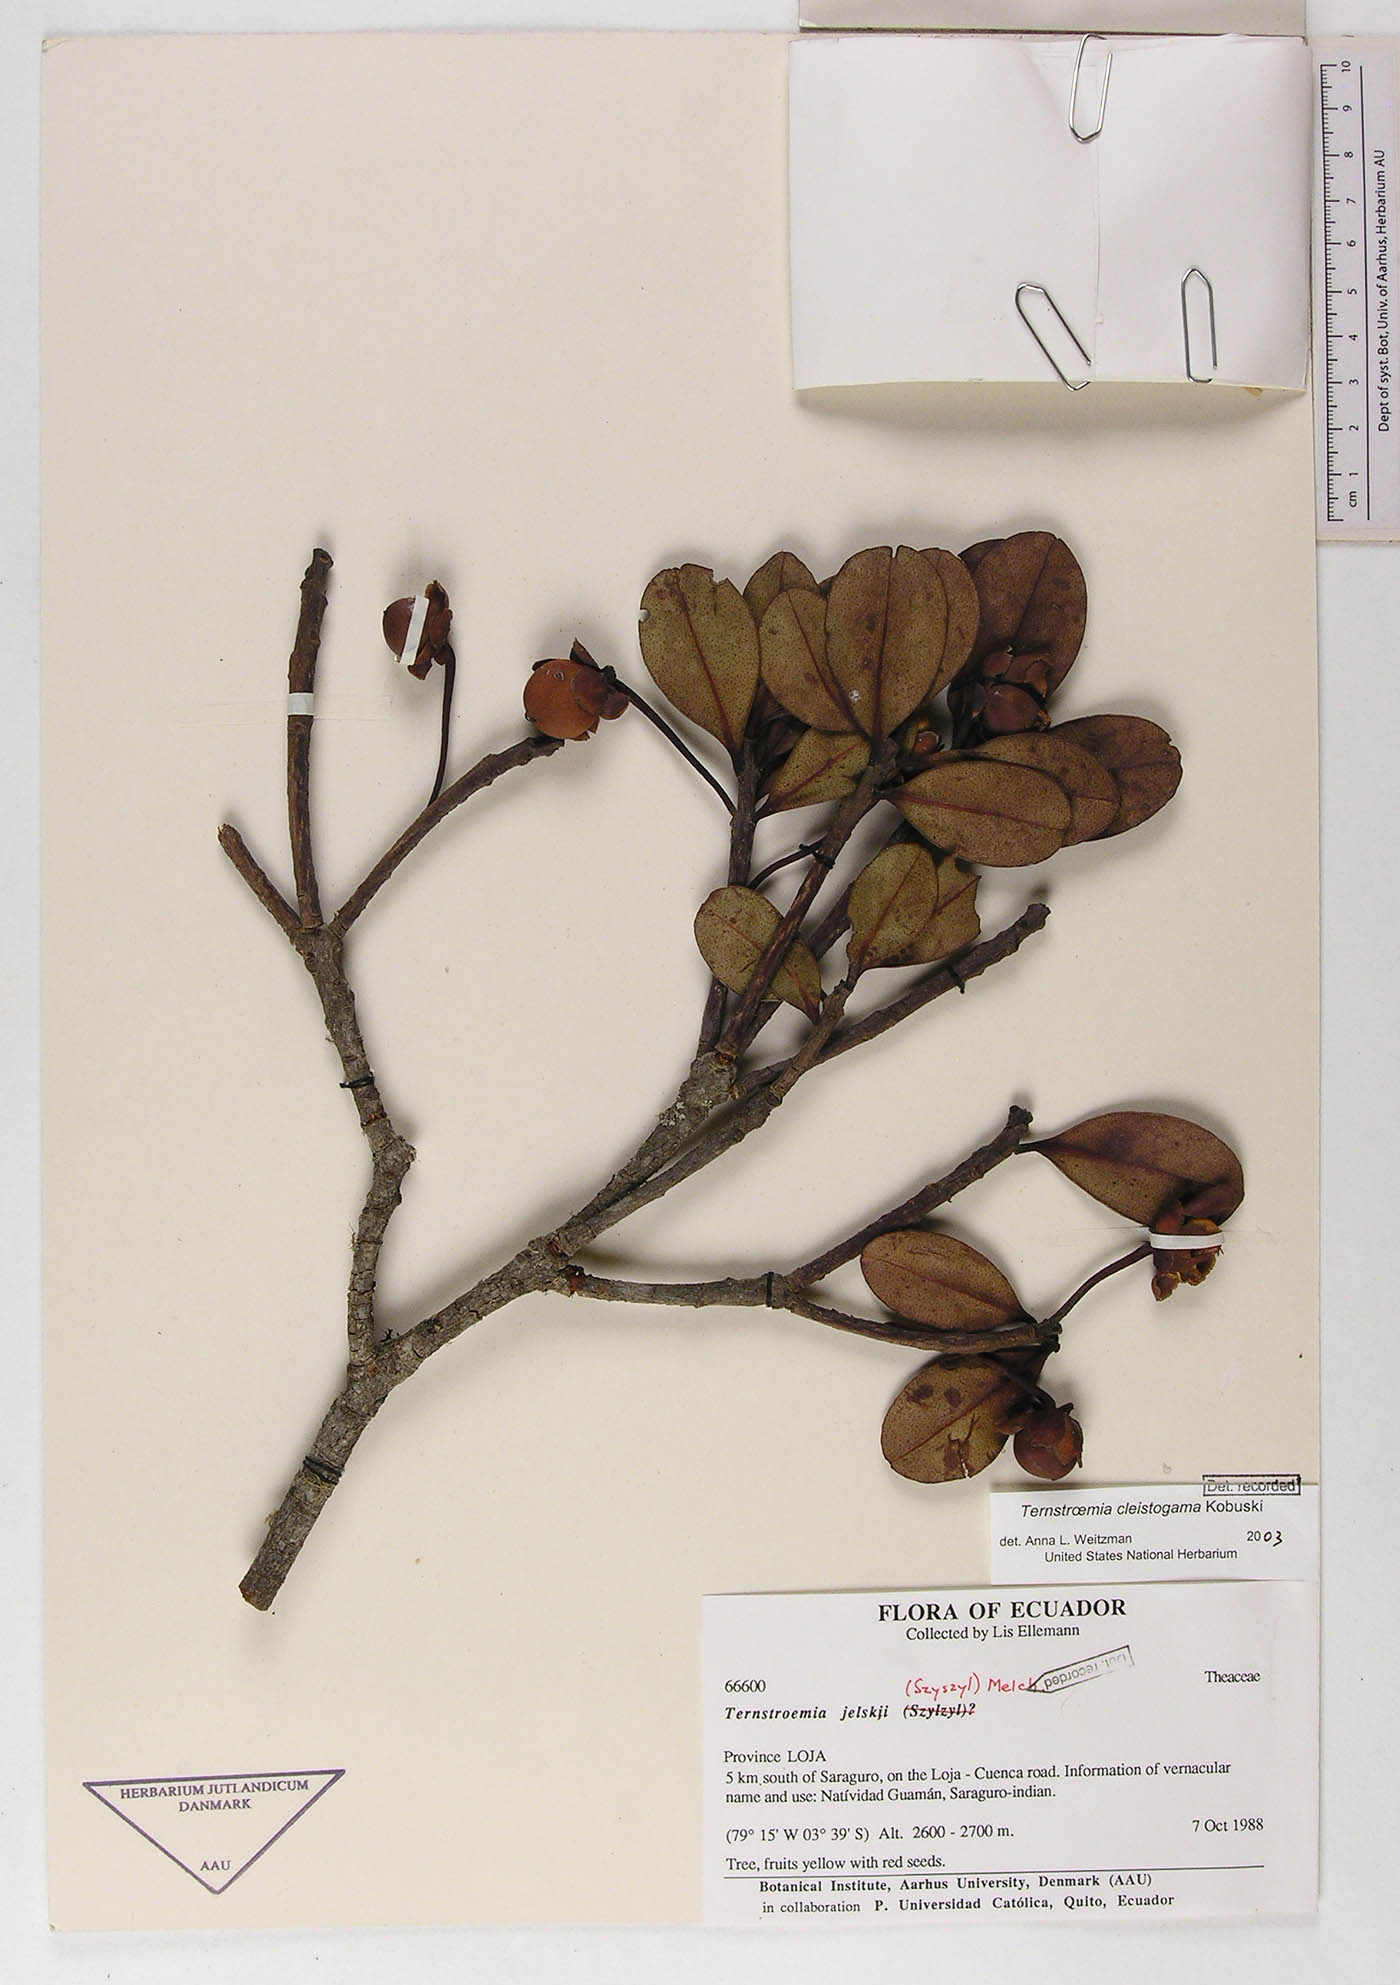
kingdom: Plantae
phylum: Tracheophyta
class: Magnoliopsida
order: Ericales
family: Pentaphylacaceae
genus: Ternstroemia
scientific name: Ternstroemia cleistogama
